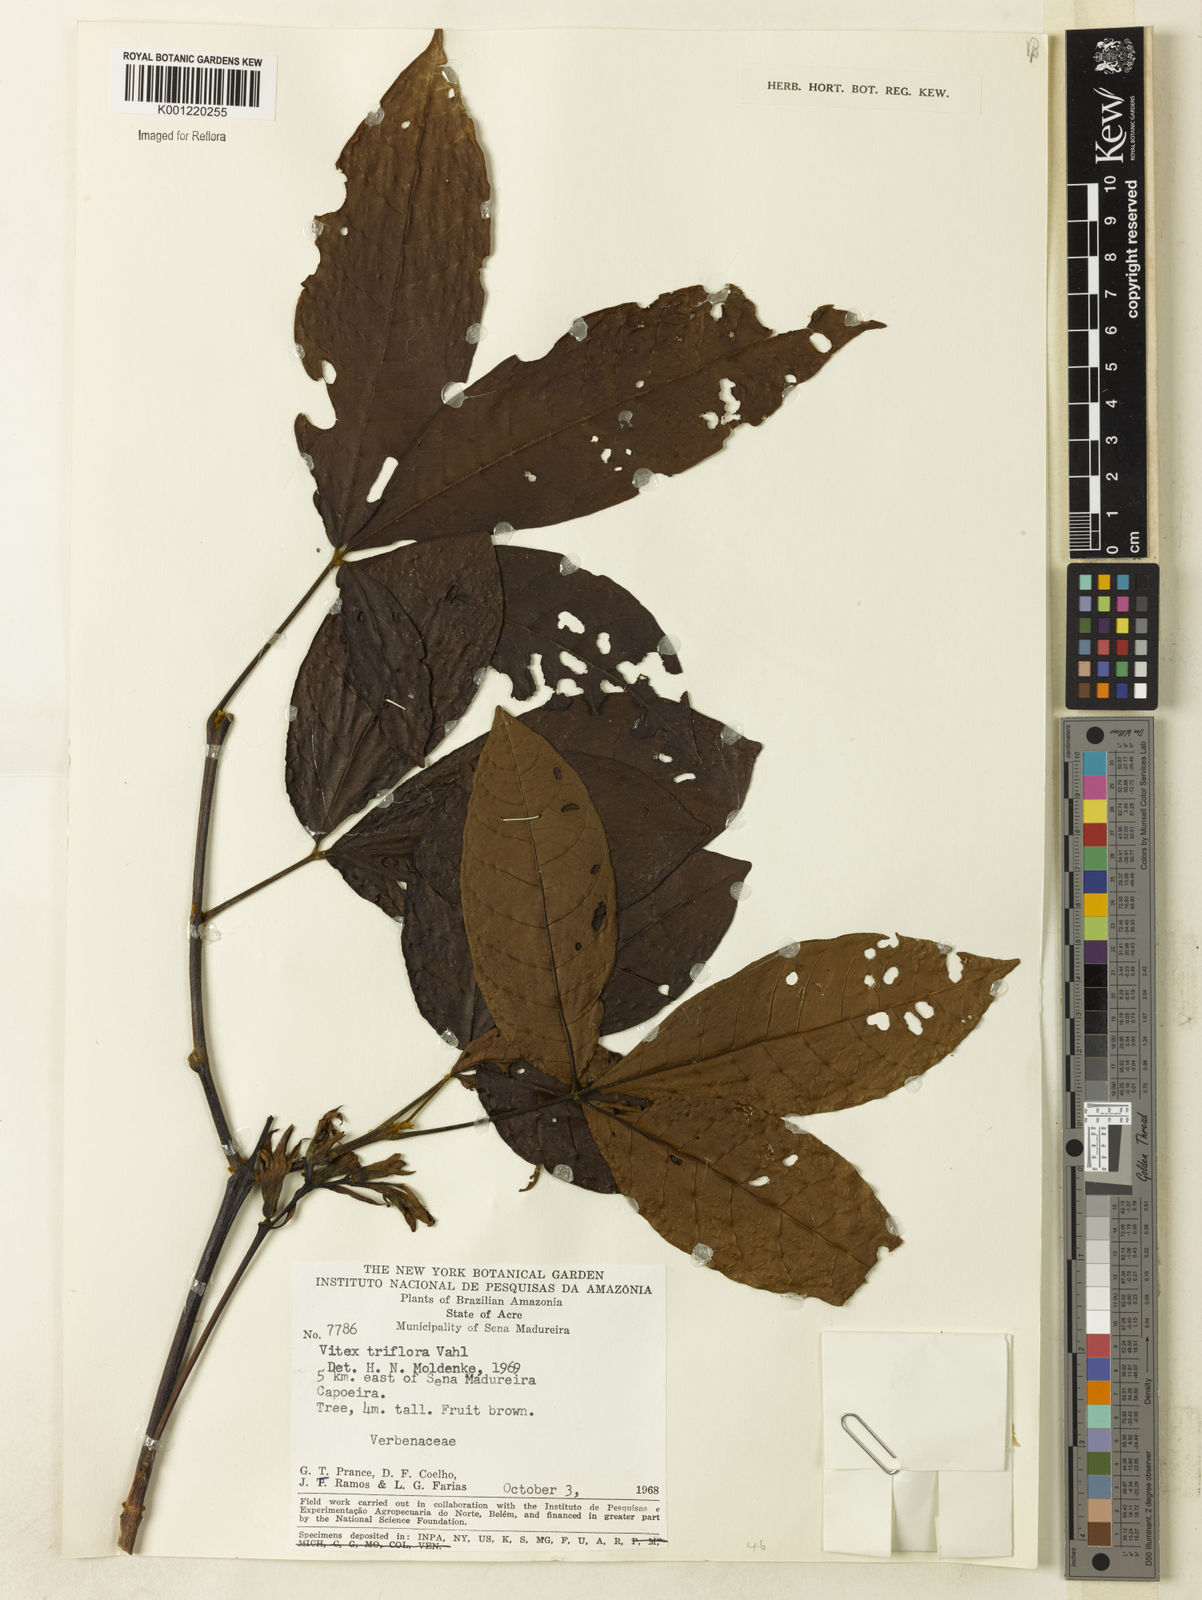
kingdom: Plantae
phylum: Tracheophyta
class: Magnoliopsida
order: Lamiales
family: Lamiaceae
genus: Vitex
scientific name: Vitex triflora
